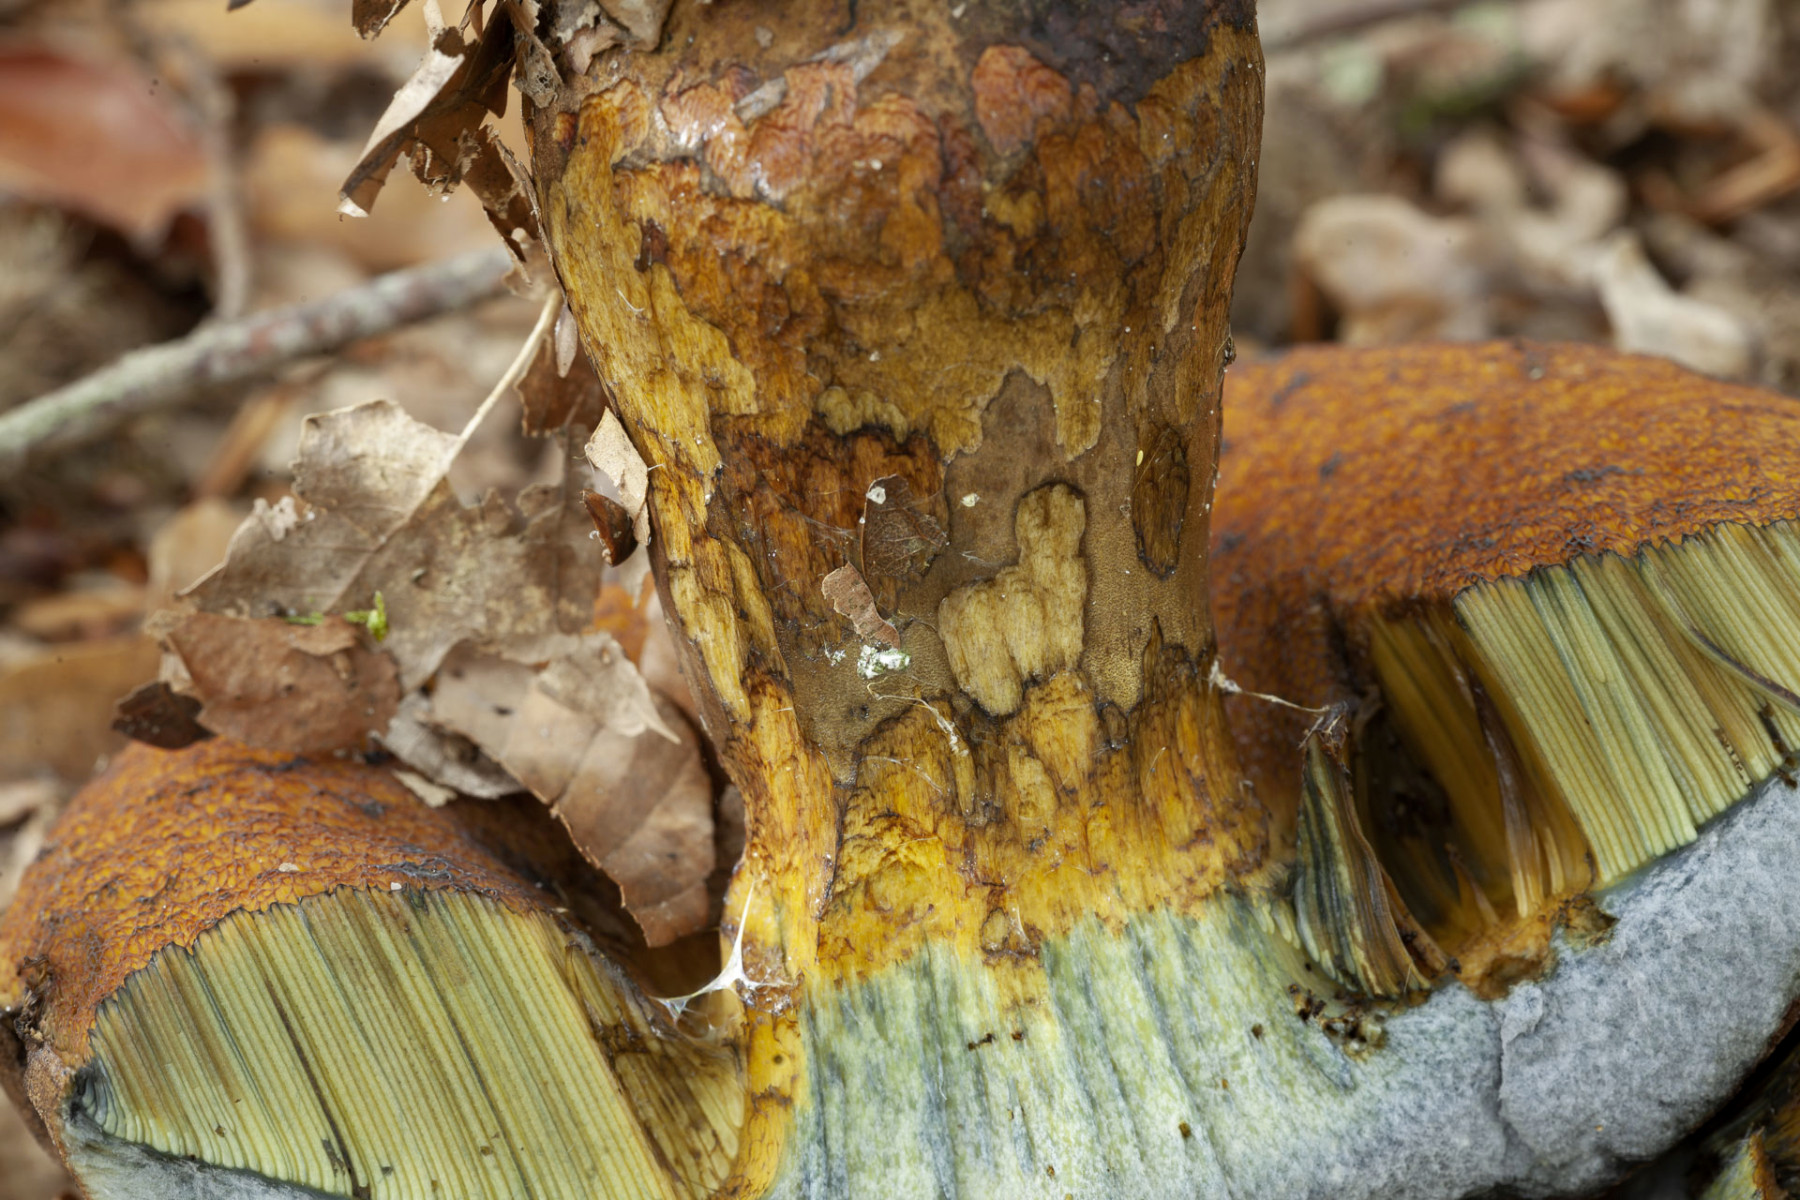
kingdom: Fungi
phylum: Basidiomycota
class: Agaricomycetes
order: Boletales
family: Boletaceae
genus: Neoboletus
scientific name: Neoboletus erythropus
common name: punktstokket indigorørhat
